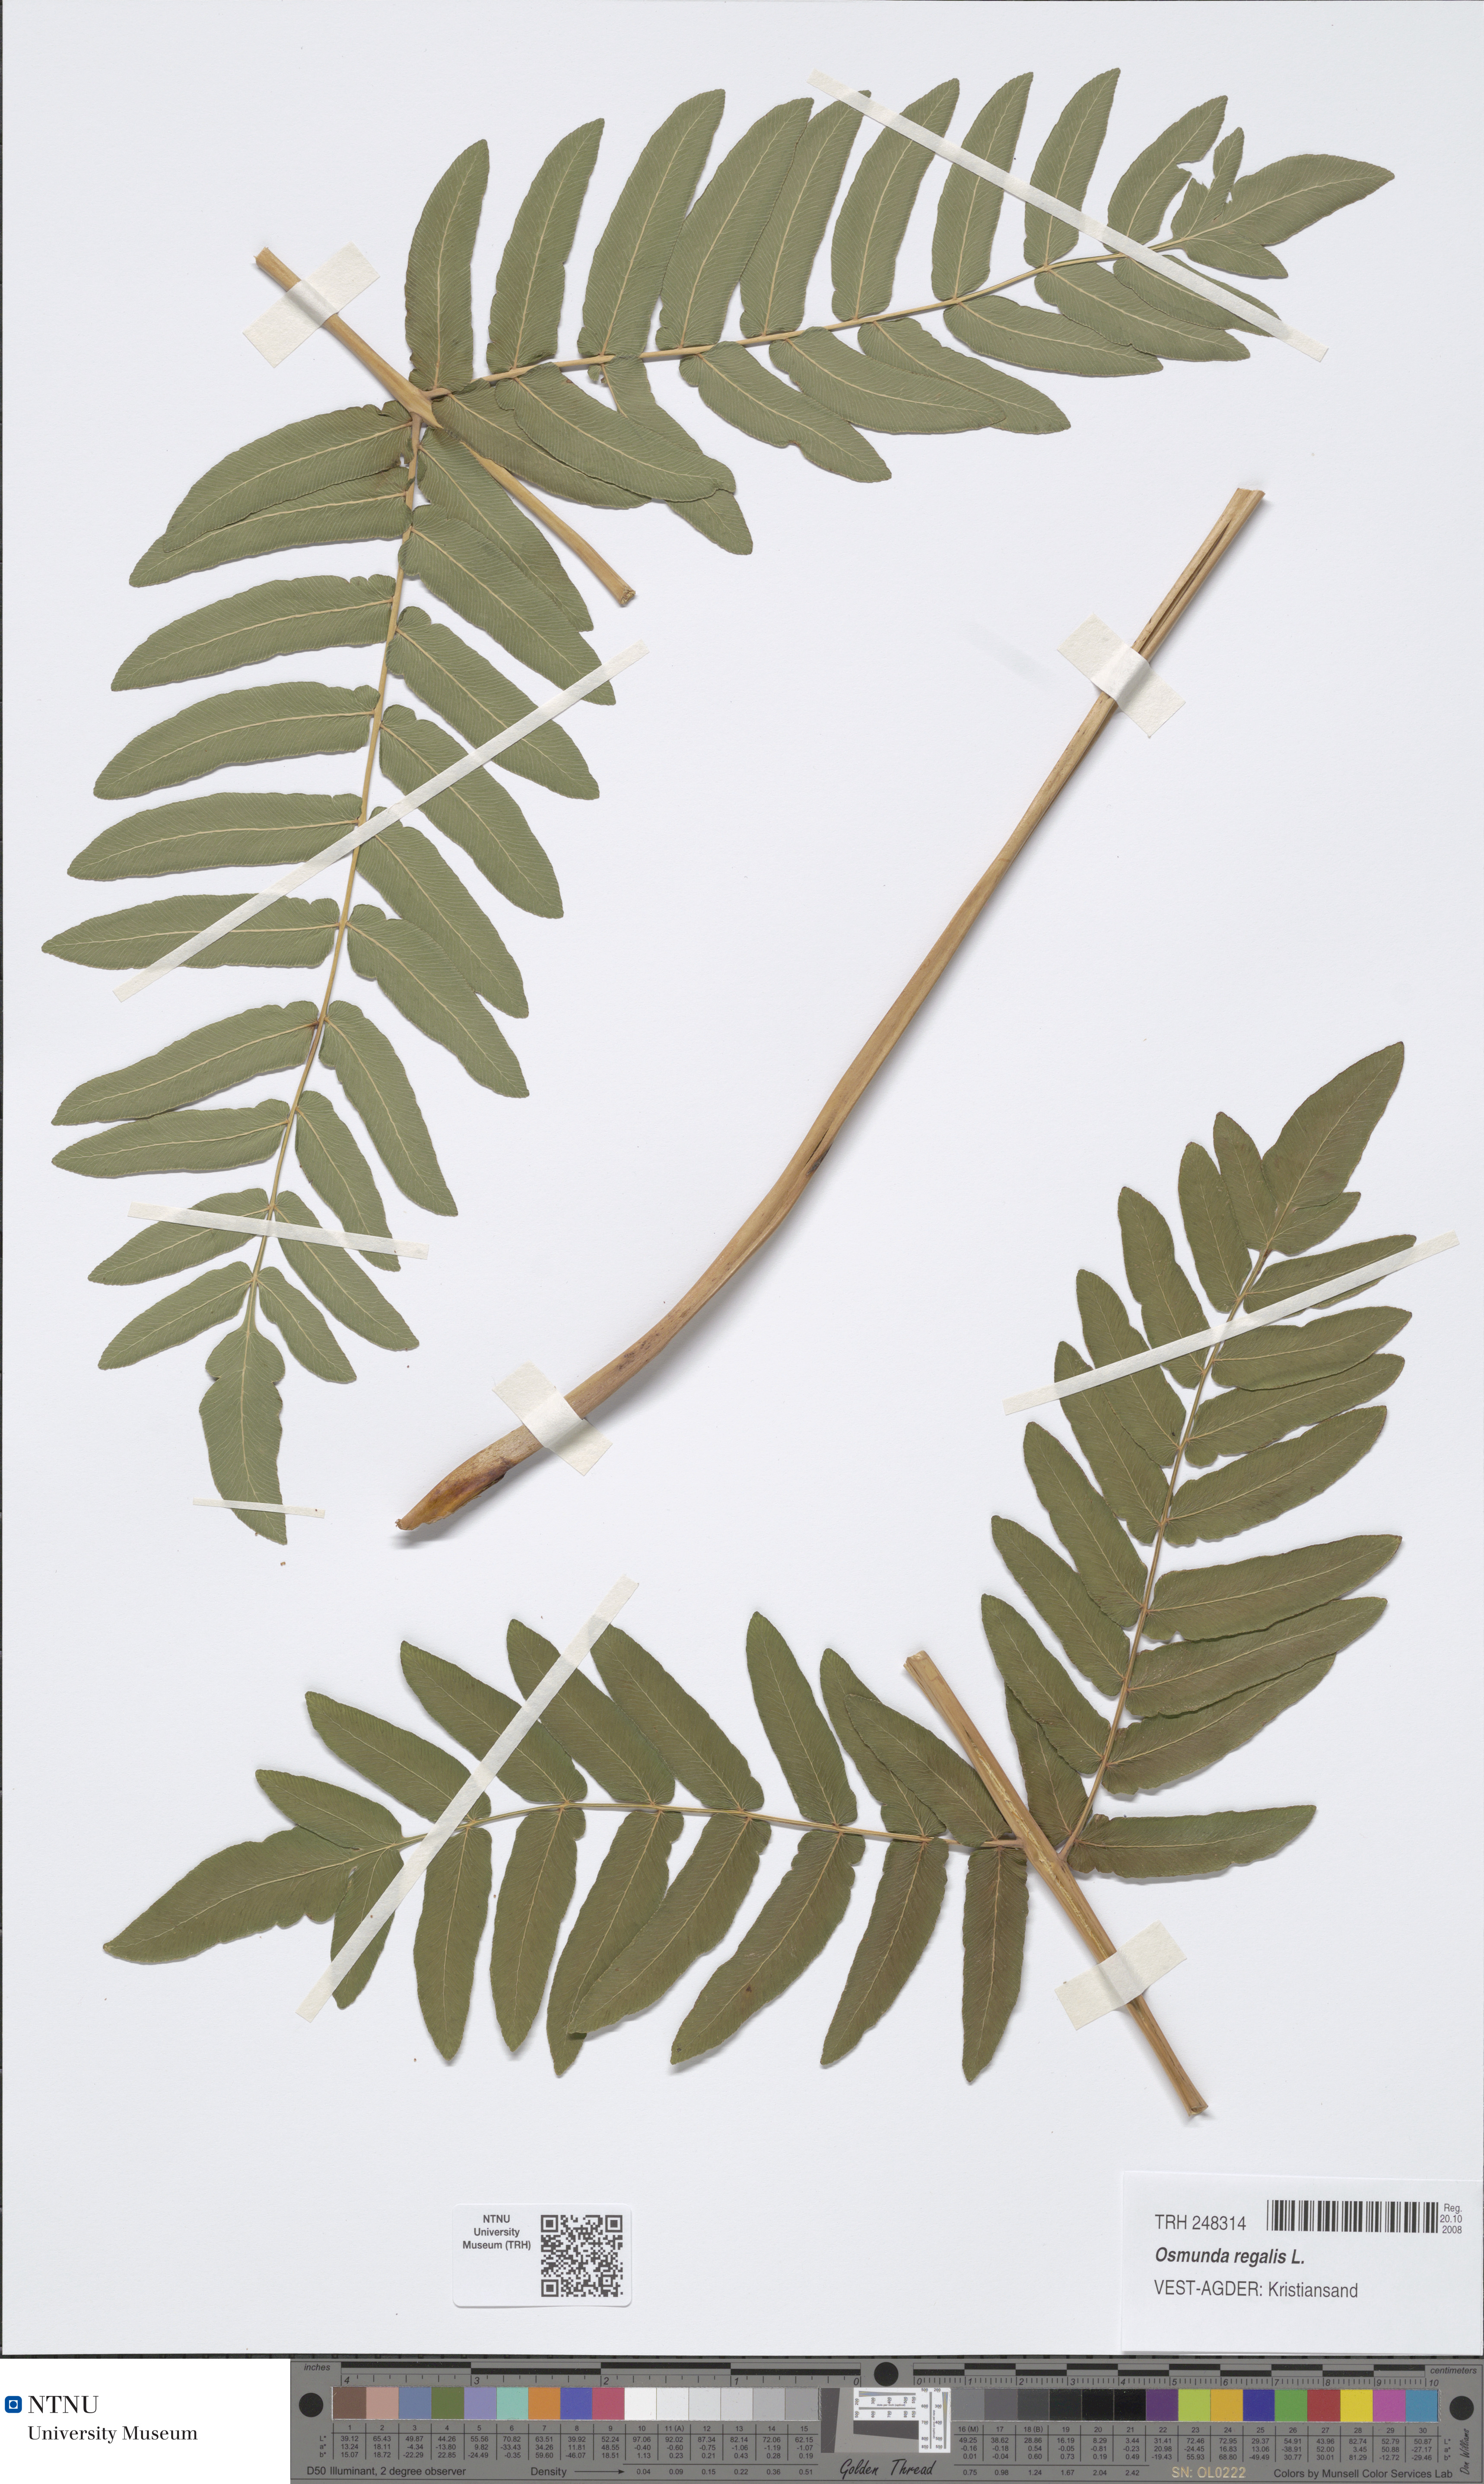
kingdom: Plantae
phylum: Tracheophyta
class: Polypodiopsida
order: Osmundales
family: Osmundaceae
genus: Osmunda
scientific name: Osmunda regalis
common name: Royal fern
